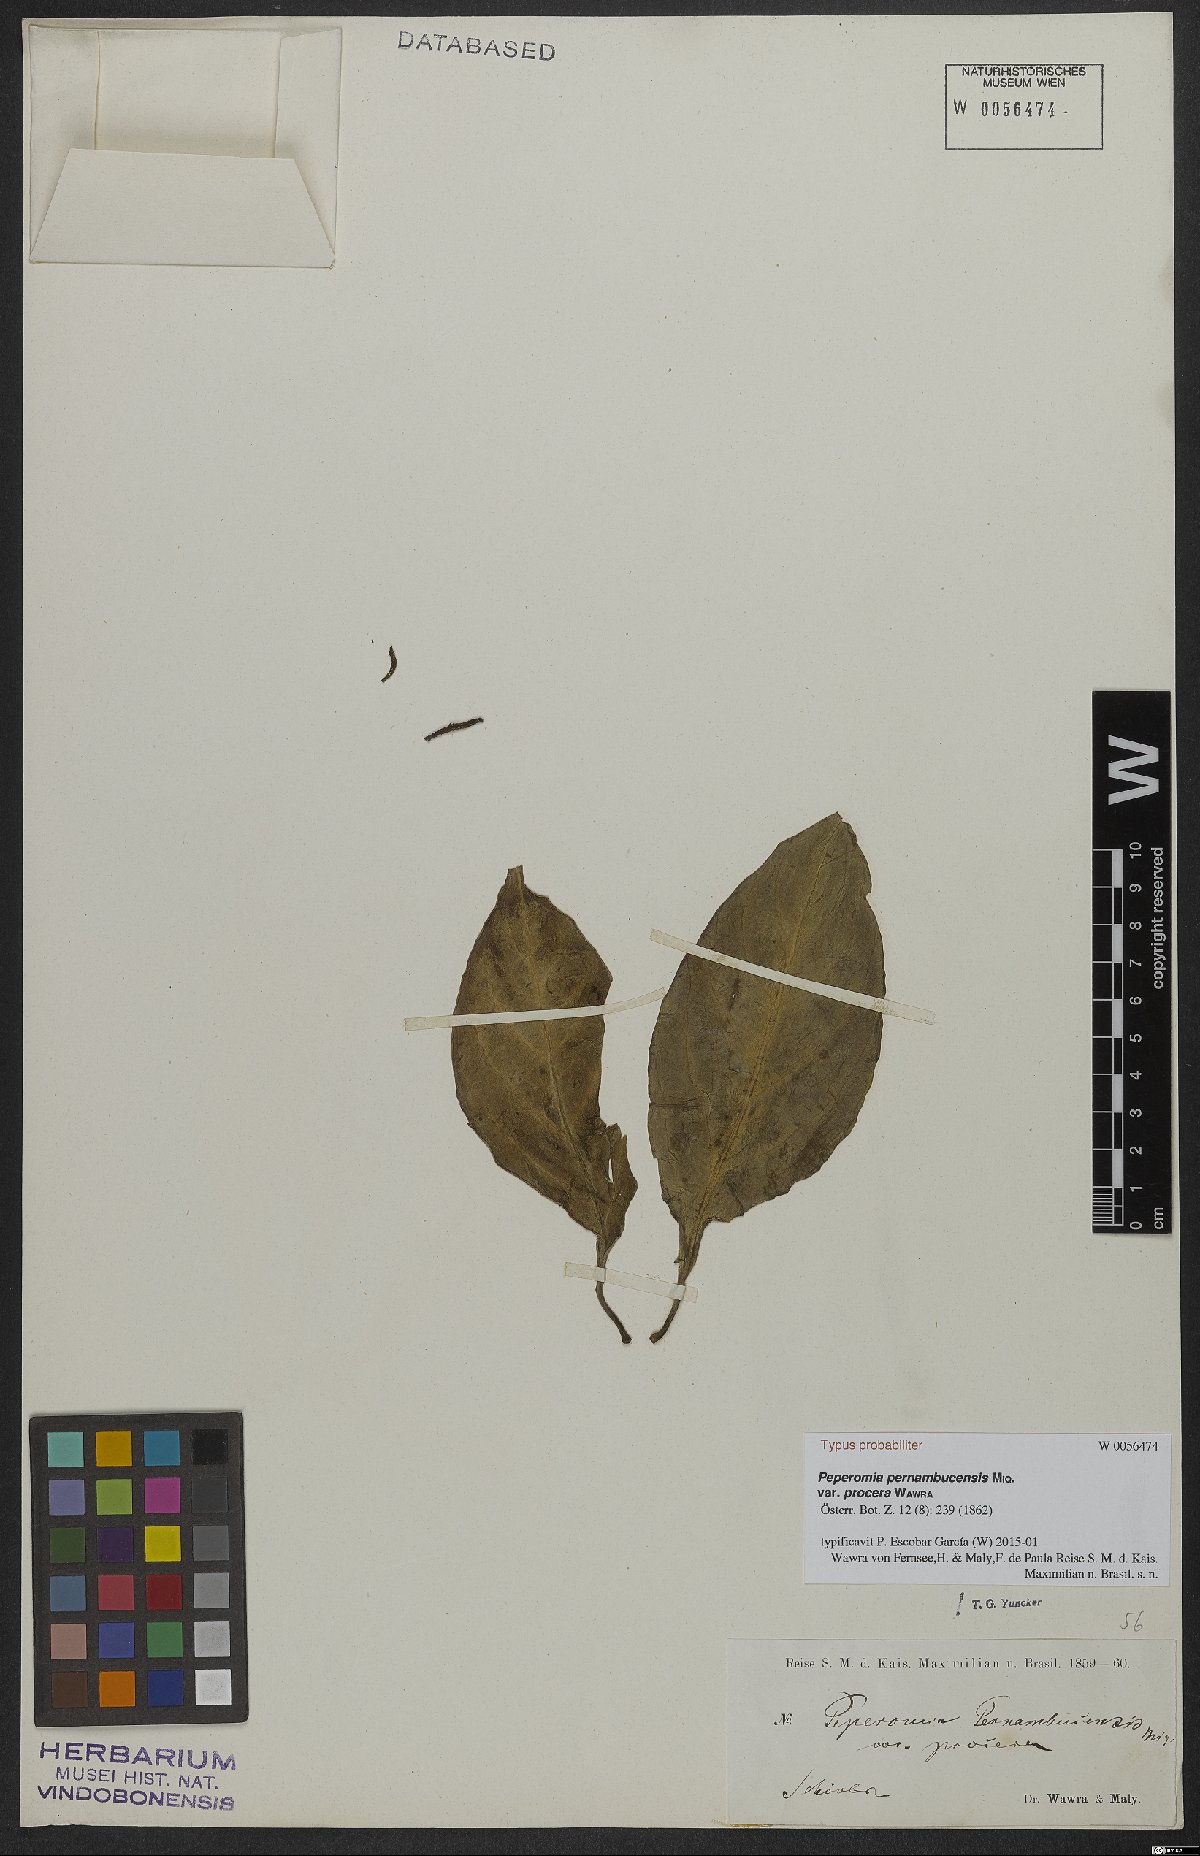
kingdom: Plantae
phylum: Tracheophyta
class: Magnoliopsida
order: Piperales
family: Piperaceae
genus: Peperomia
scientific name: Peperomia pernambucensis
